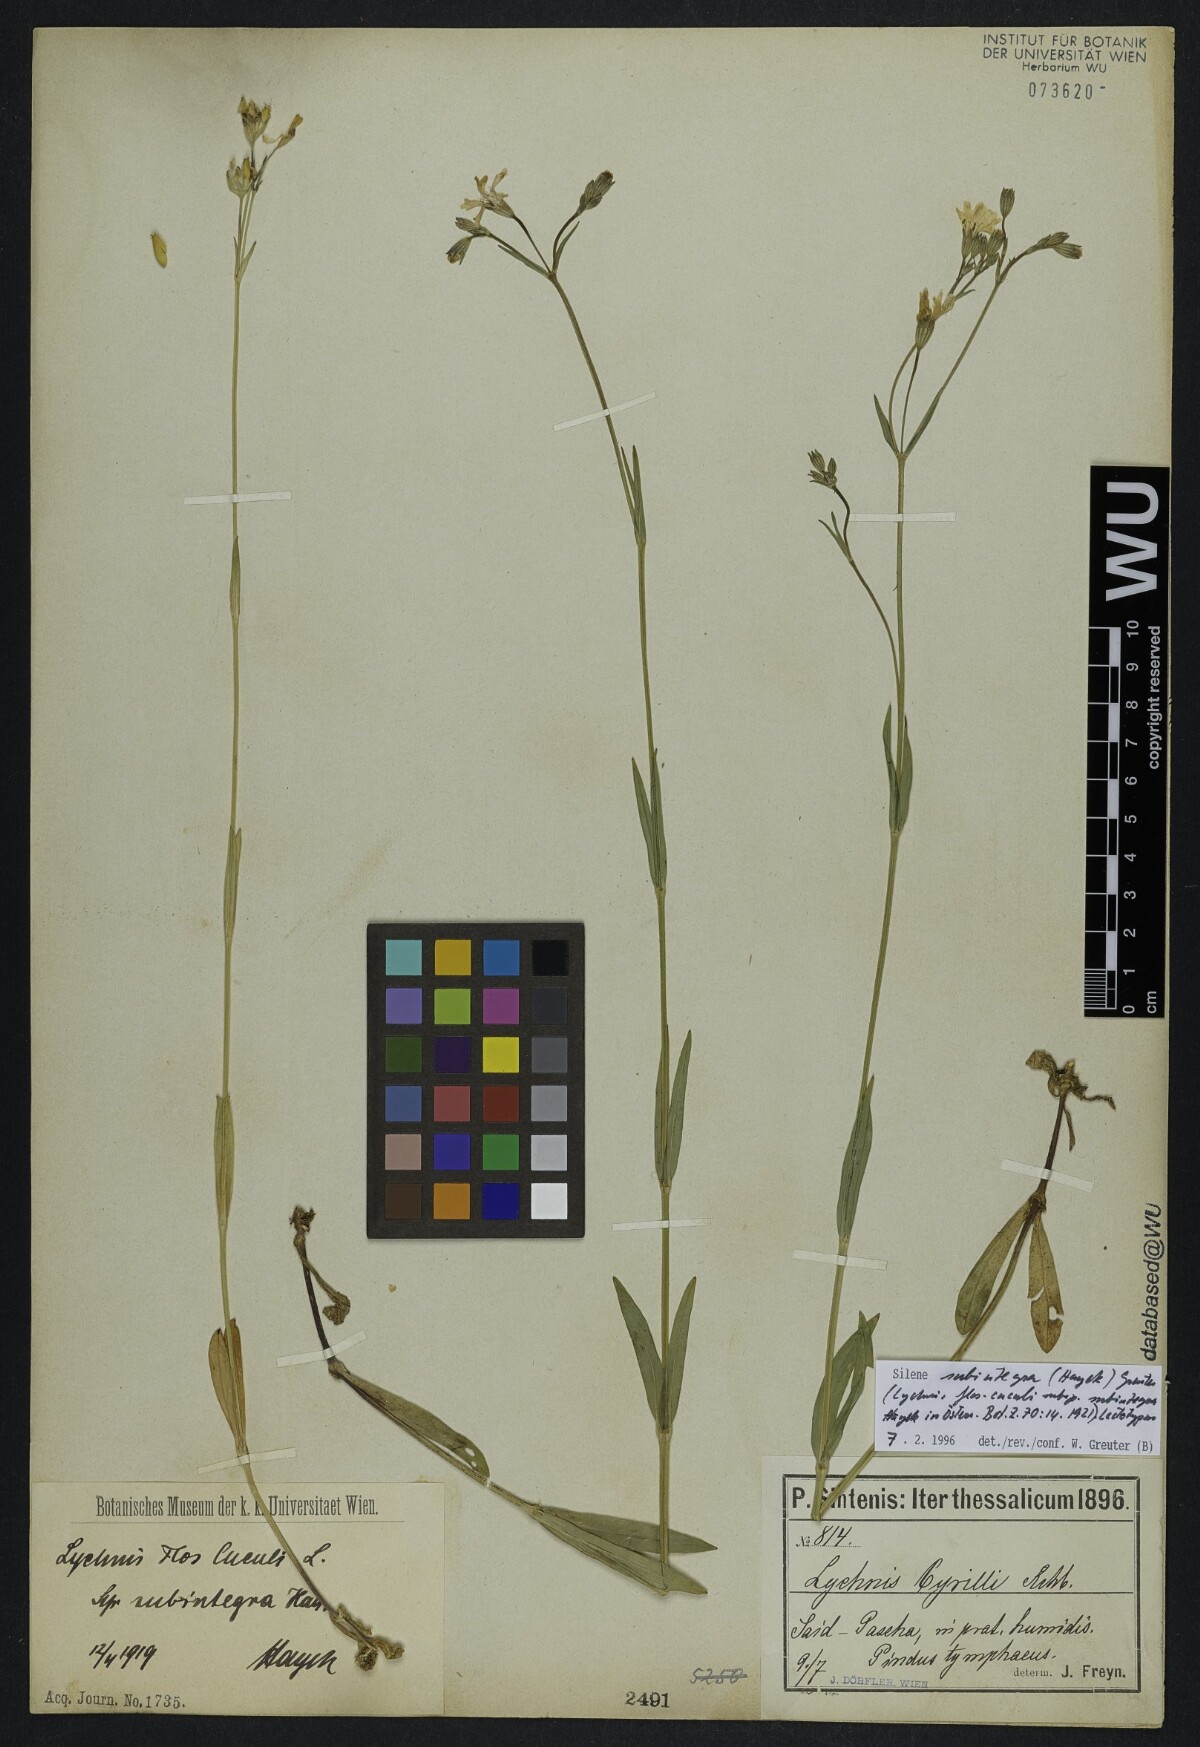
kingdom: Plantae
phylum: Tracheophyta
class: Magnoliopsida
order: Caryophyllales
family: Caryophyllaceae
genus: Silene
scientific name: Silene subintegra
